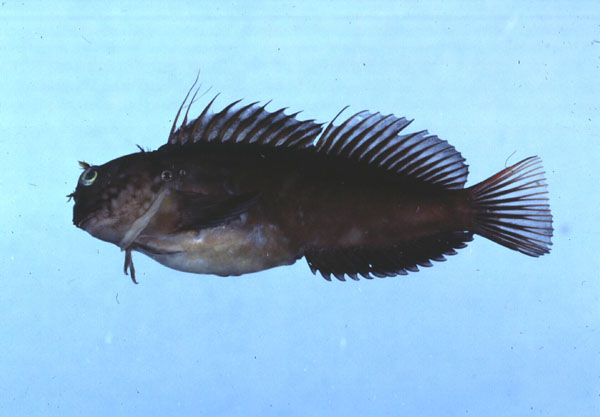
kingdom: Animalia
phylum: Chordata
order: Perciformes
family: Blenniidae
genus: Cirripectes
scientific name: Cirripectes quagga
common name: Squiggly blenny
